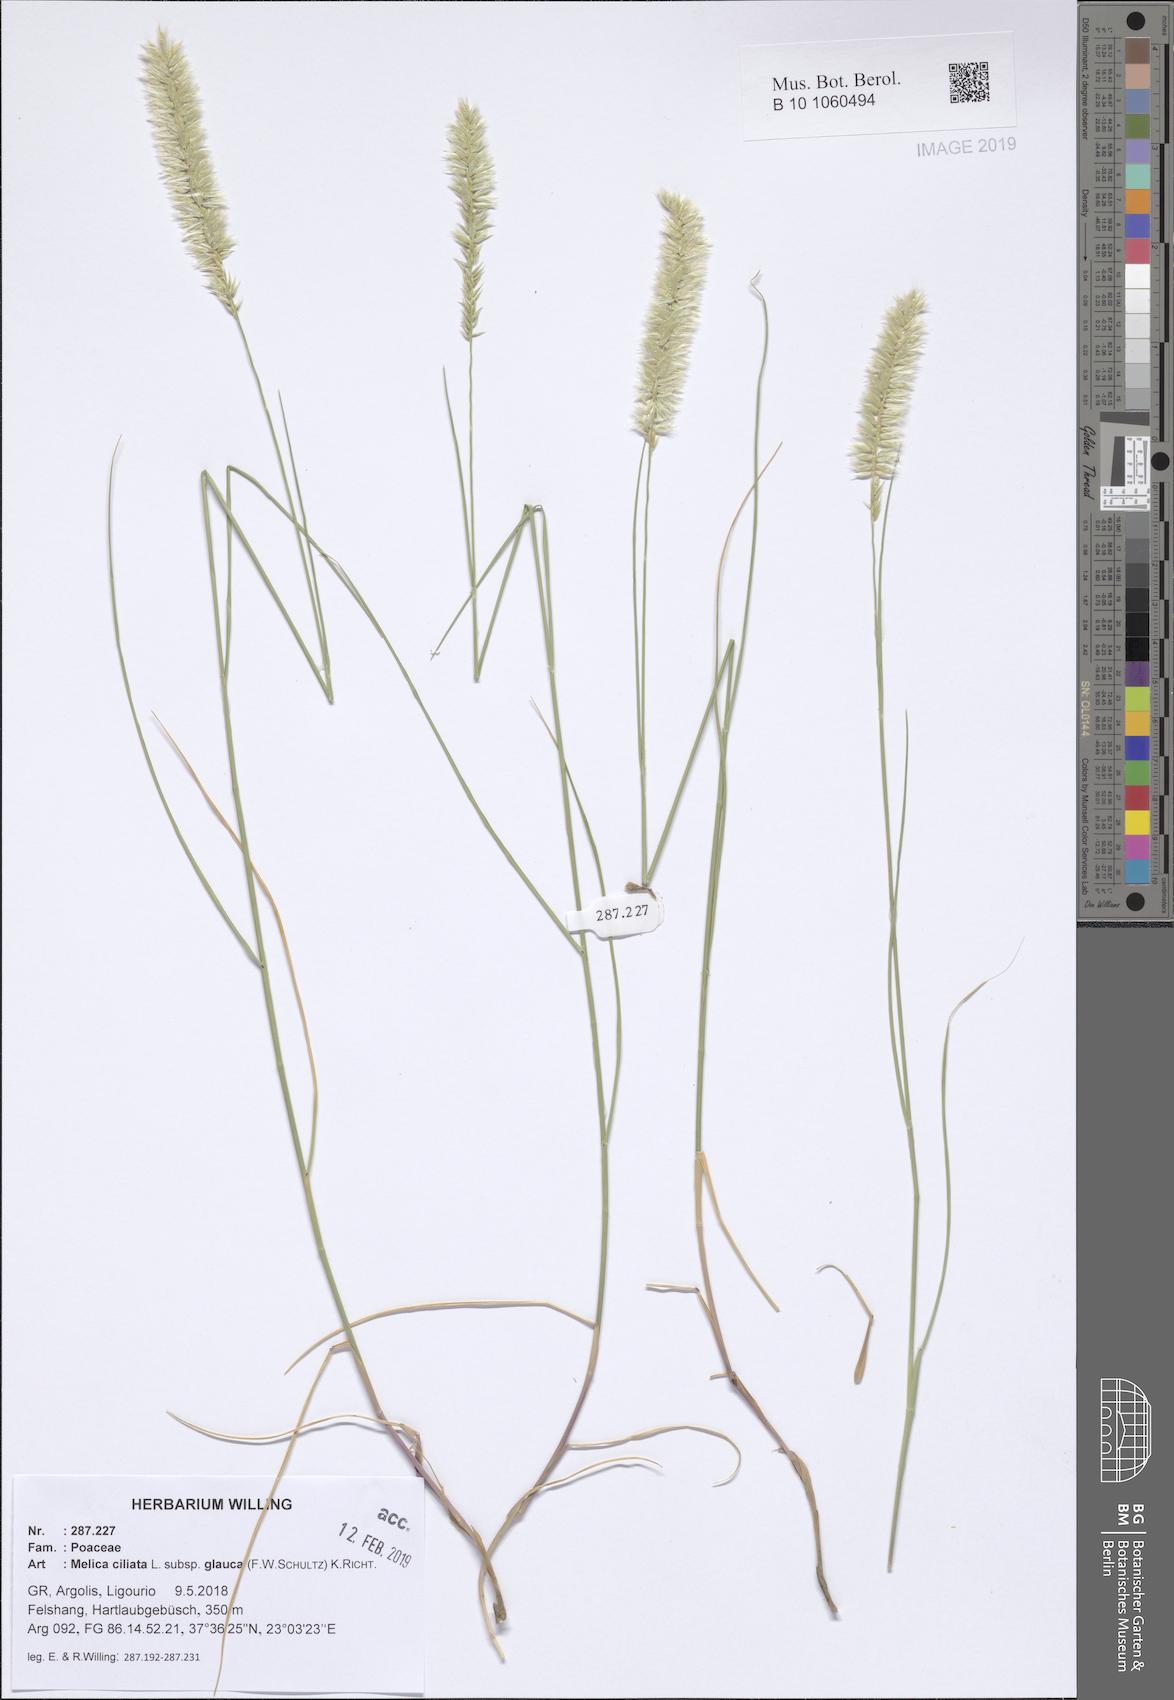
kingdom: Plantae
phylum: Tracheophyta
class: Liliopsida
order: Poales
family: Poaceae
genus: Melica
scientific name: Melica ciliata
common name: Hairy melicgrass
